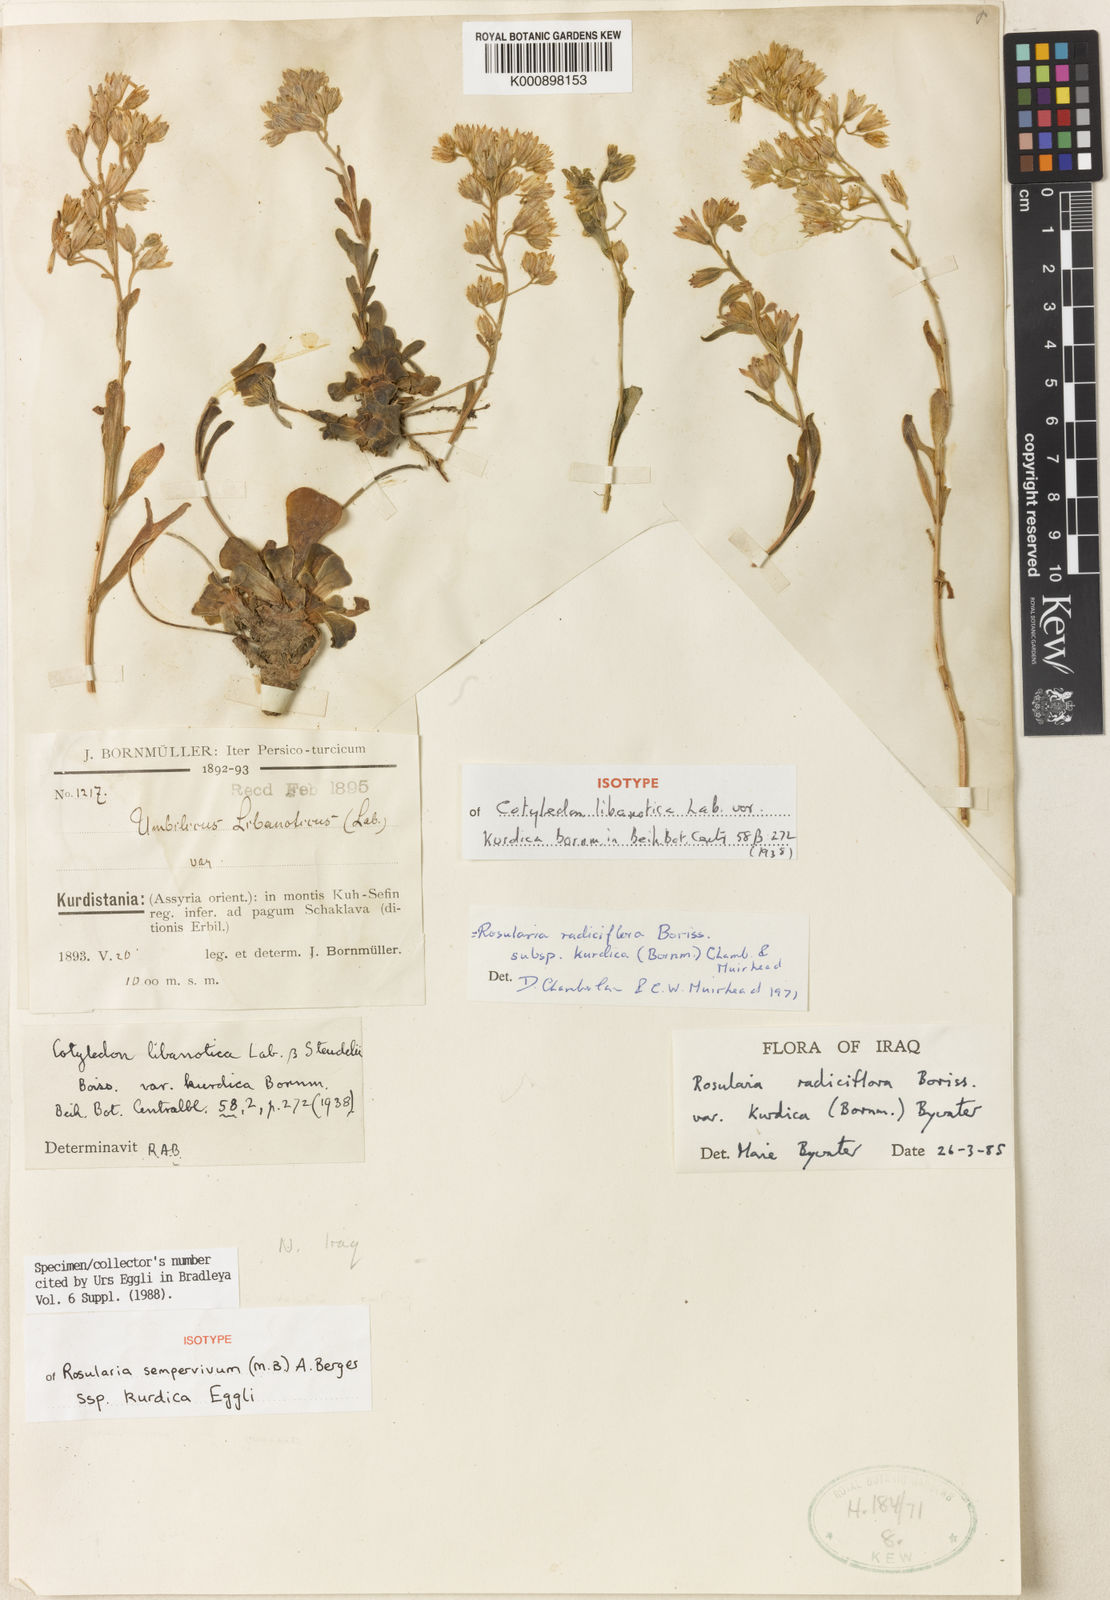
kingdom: Plantae
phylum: Tracheophyta
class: Magnoliopsida
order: Saxifragales
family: Crassulaceae
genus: Rosularia
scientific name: Rosularia sempervivum
